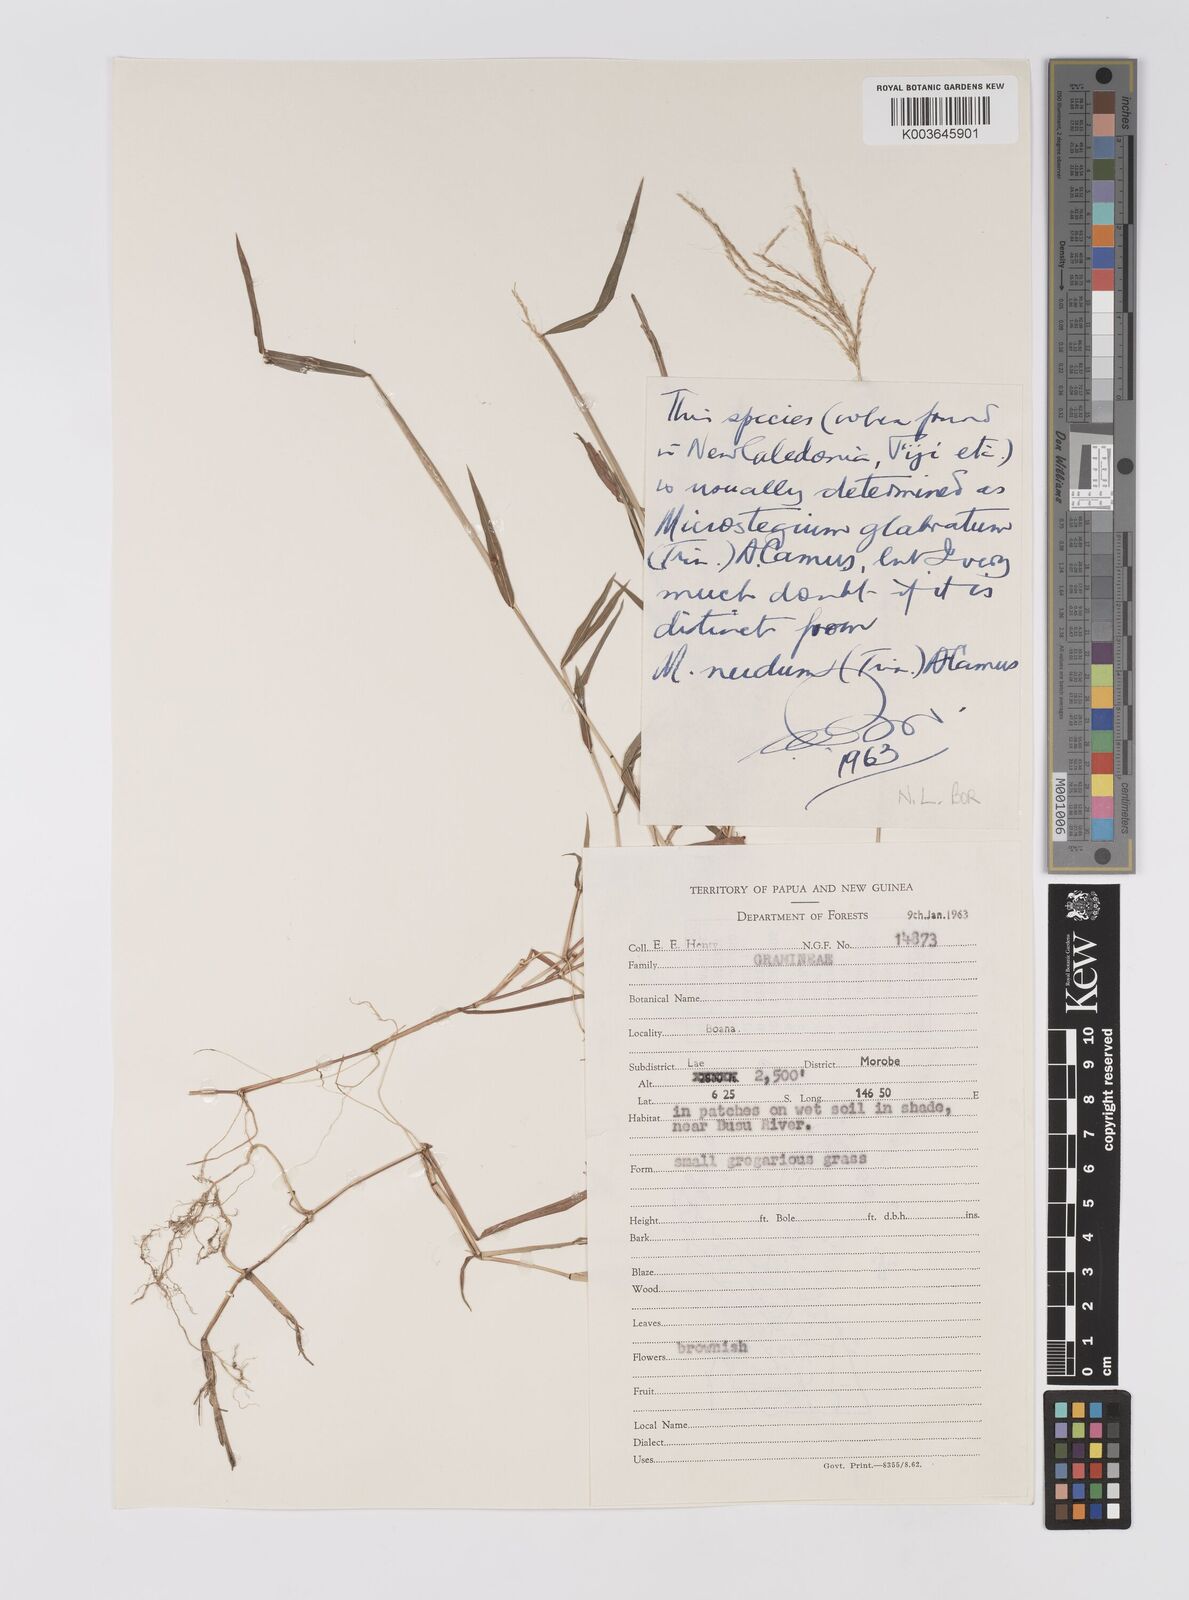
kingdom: Plantae
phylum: Tracheophyta
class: Liliopsida
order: Poales
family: Poaceae
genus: Microstegium
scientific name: Microstegium glabratum
